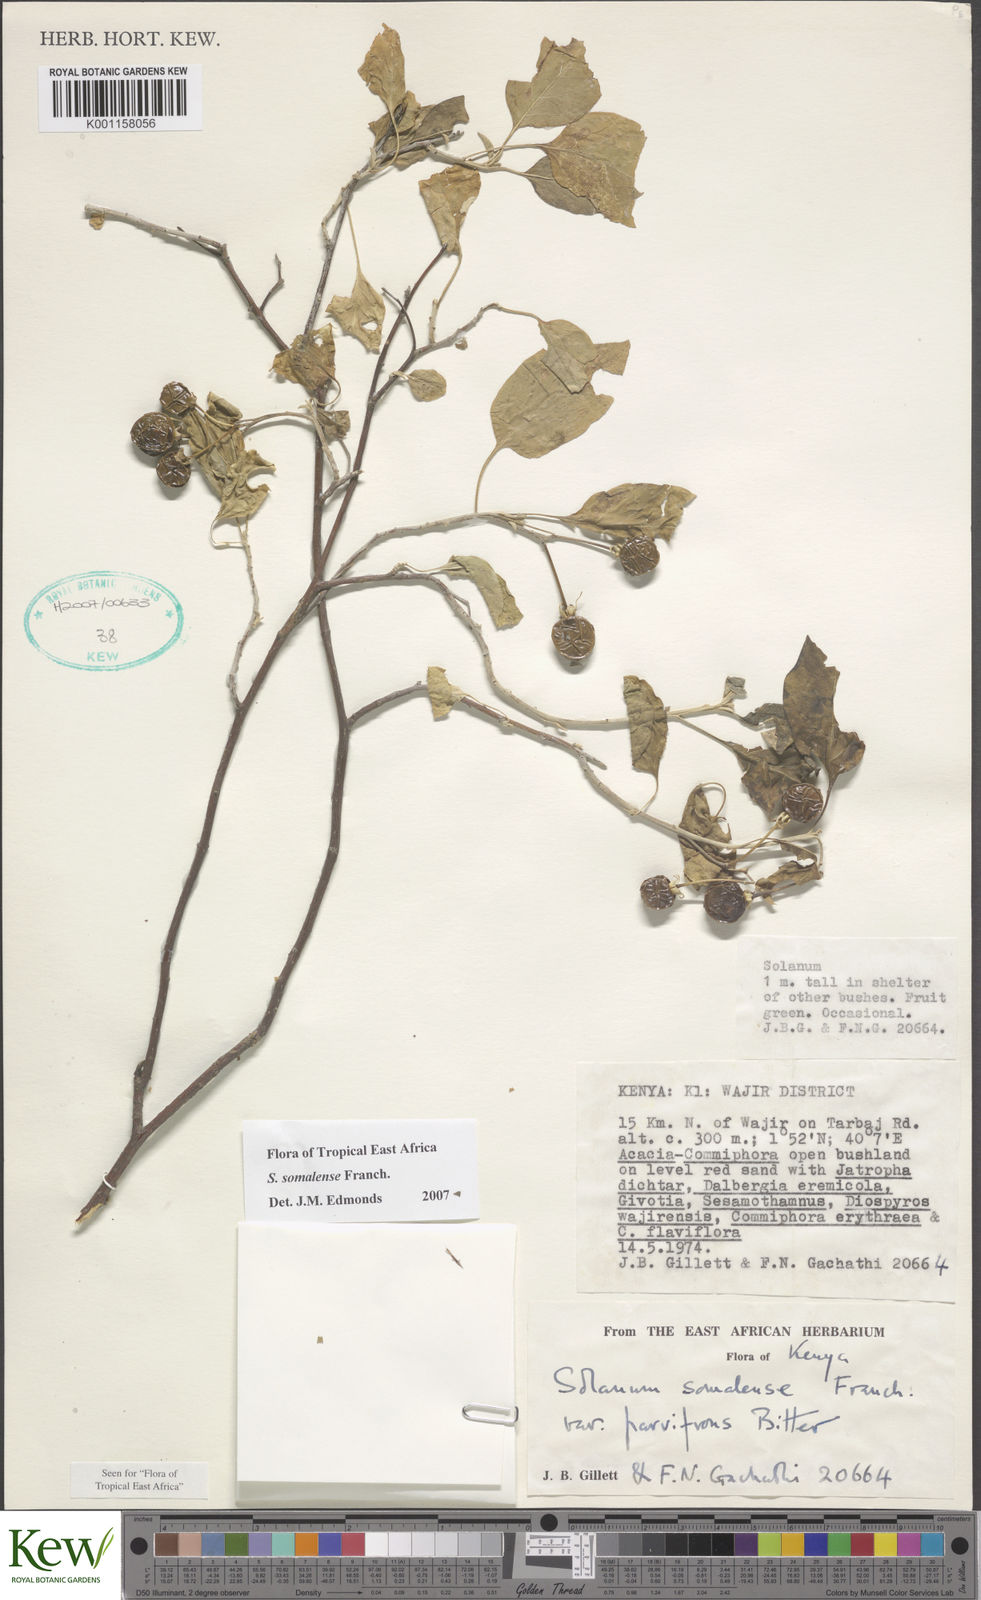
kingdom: Plantae
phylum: Tracheophyta
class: Magnoliopsida
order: Solanales
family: Solanaceae
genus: Solanum
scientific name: Solanum somalense
